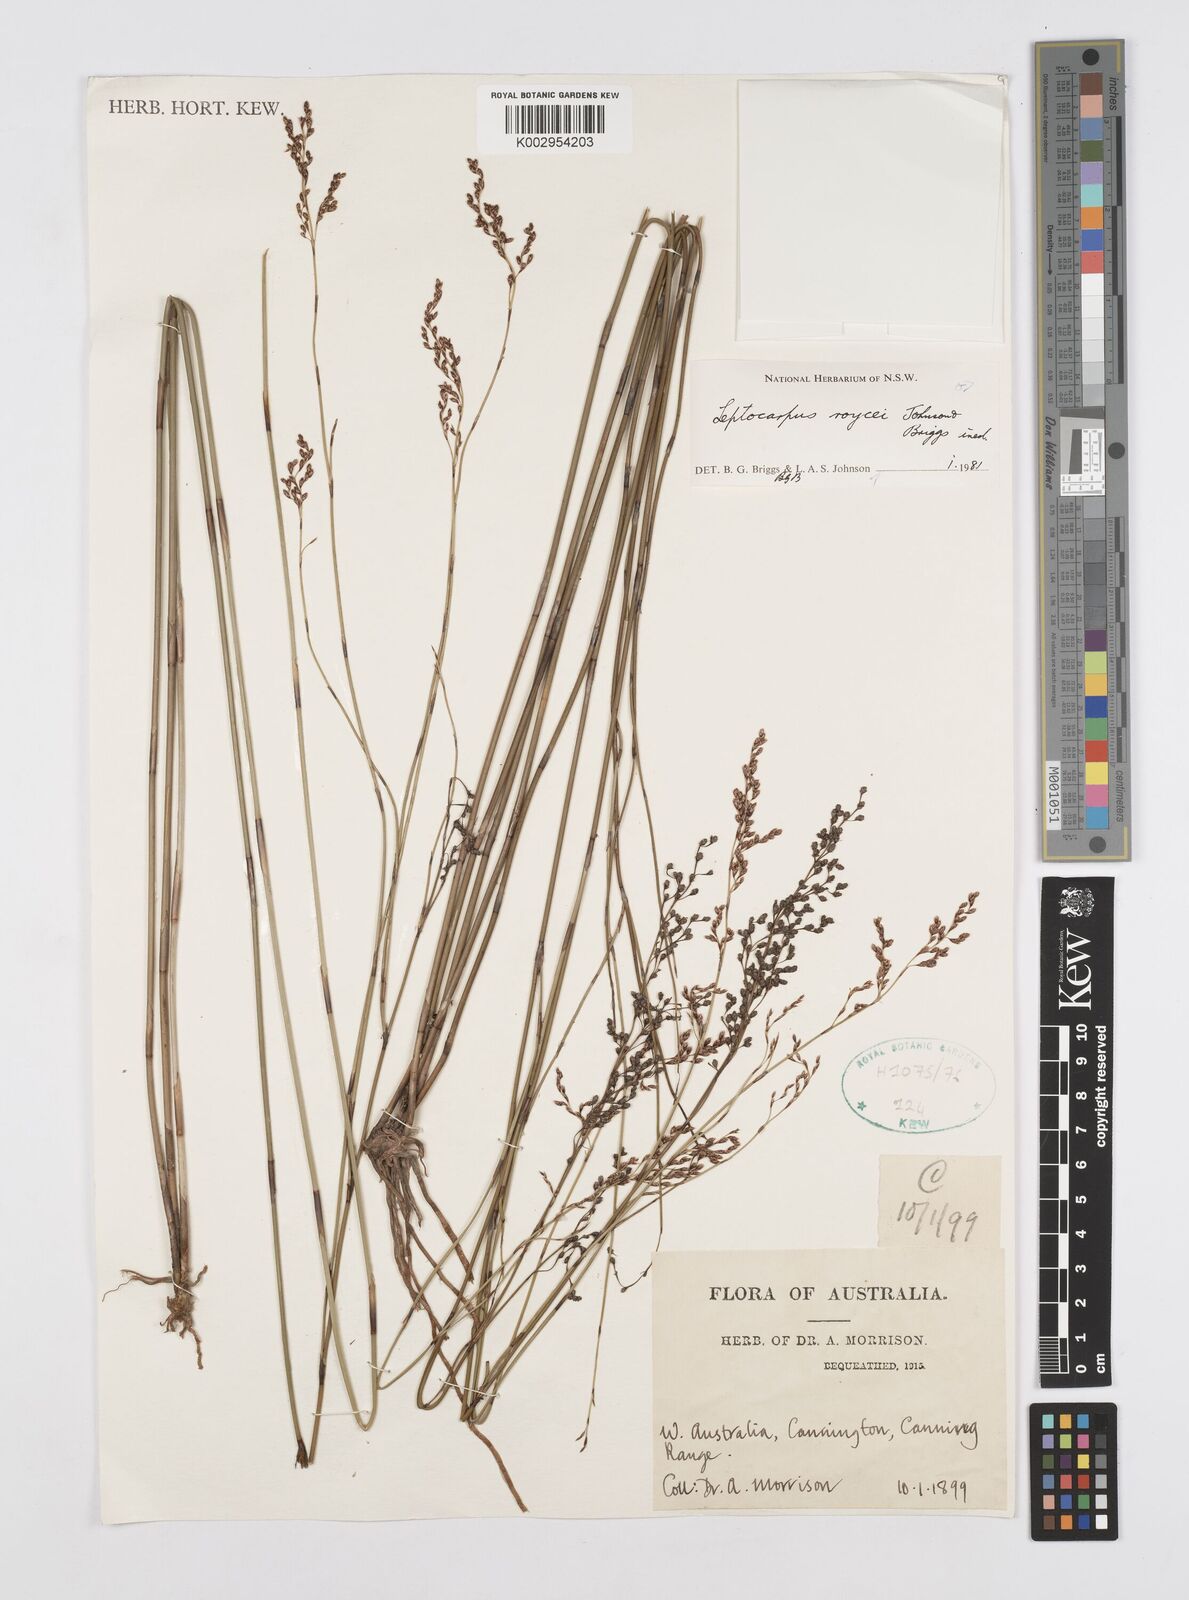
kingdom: Plantae
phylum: Tracheophyta
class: Liliopsida
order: Poales
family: Restionaceae
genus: Leptocarpus
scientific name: Leptocarpus roycei
